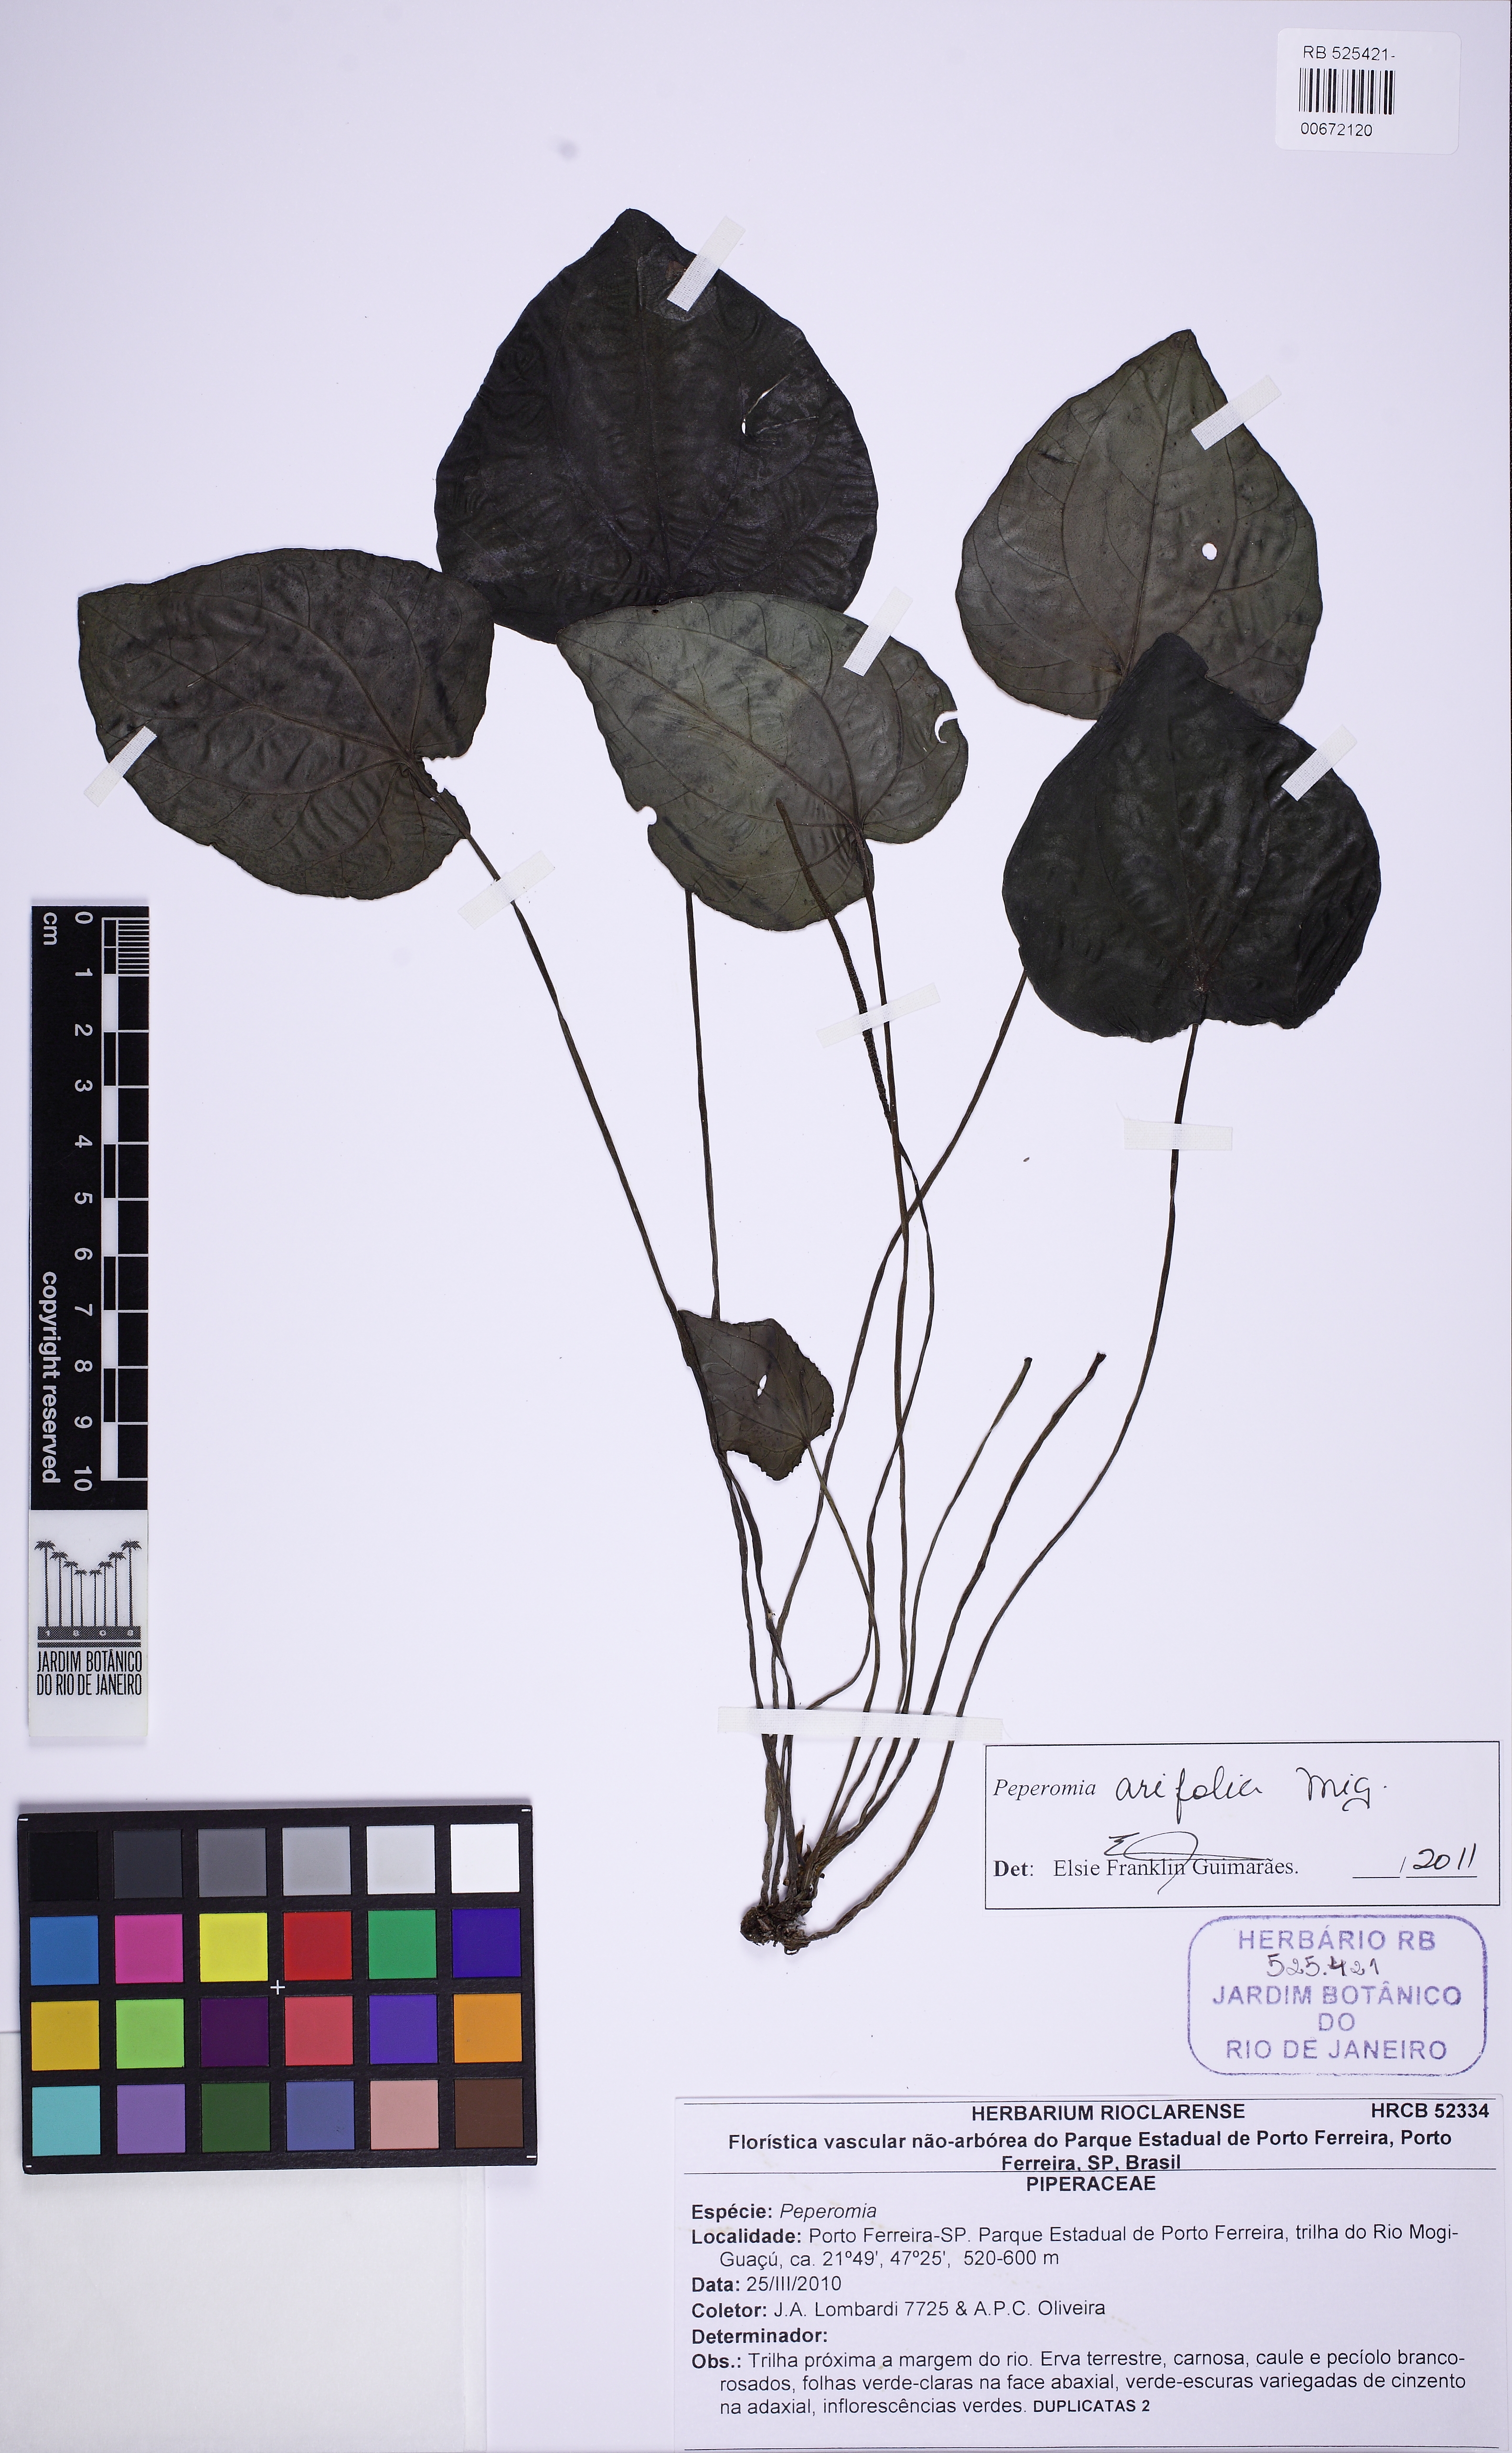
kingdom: Plantae
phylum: Tracheophyta
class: Magnoliopsida
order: Piperales
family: Piperaceae
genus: Peperomia
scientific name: Peperomia arifolia
